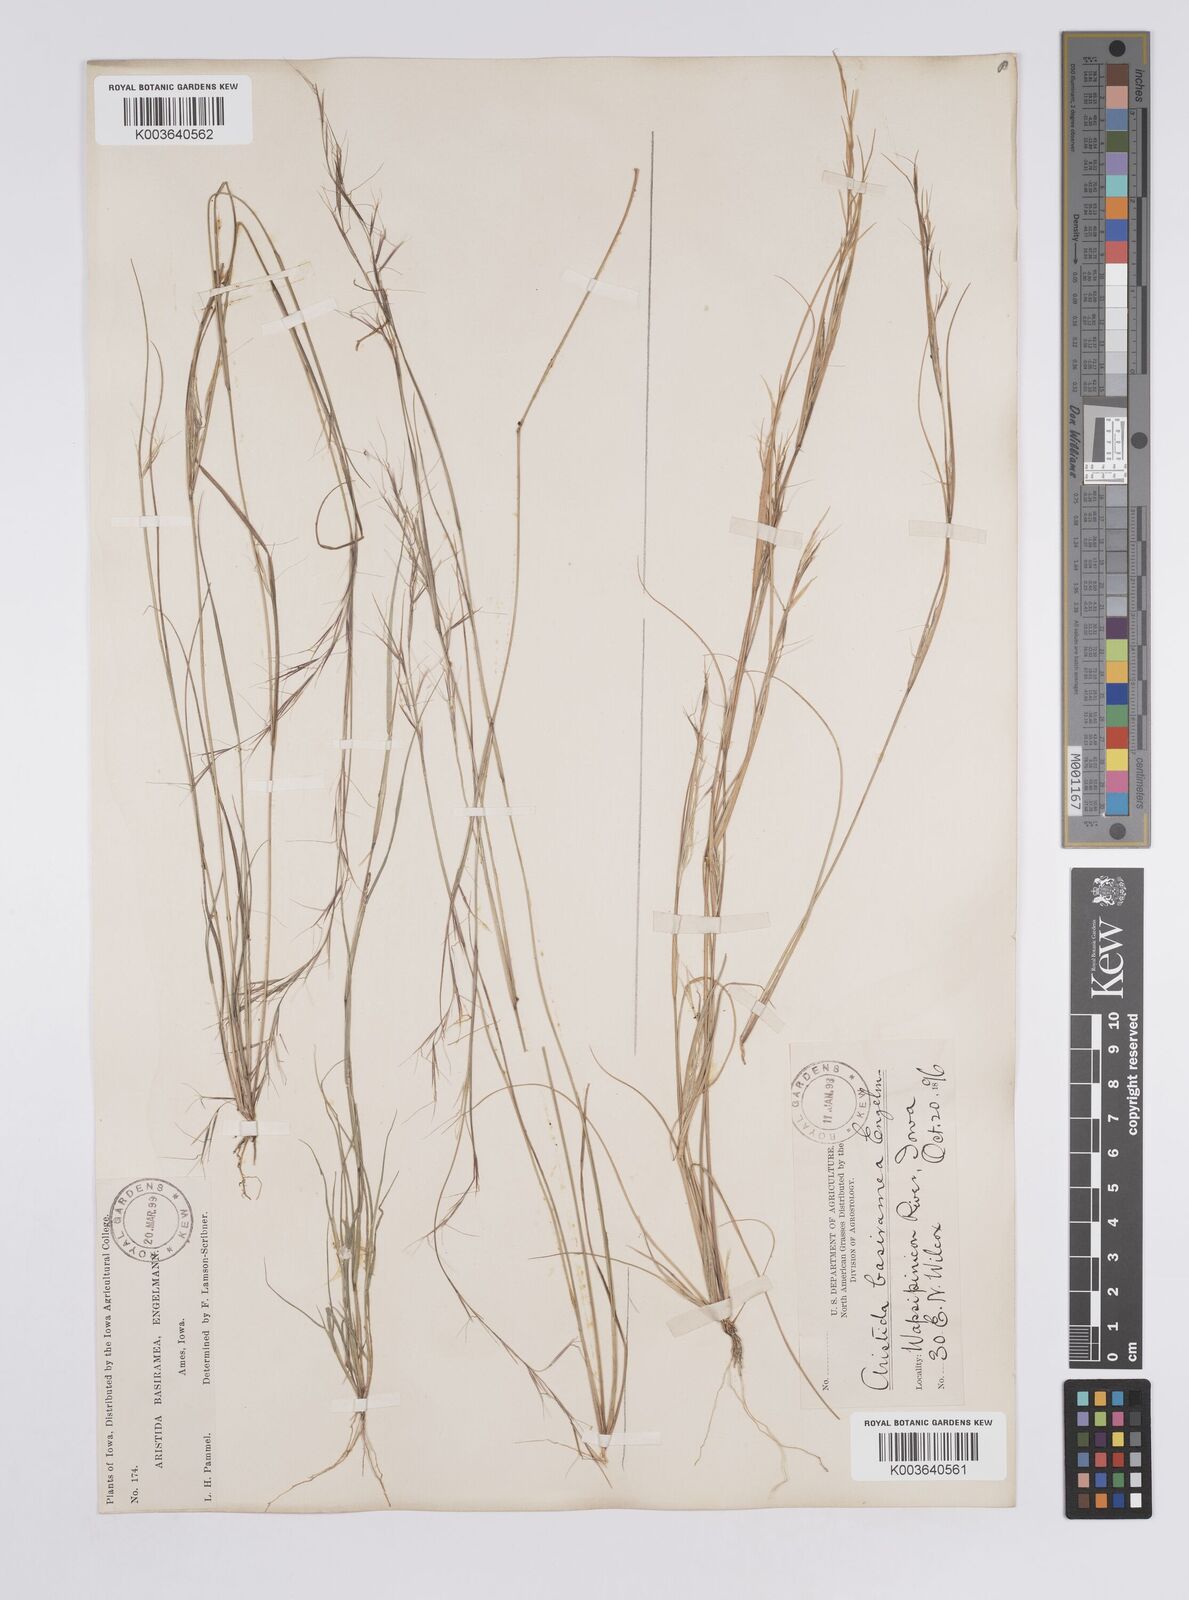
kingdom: Plantae
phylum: Tracheophyta
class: Liliopsida
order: Poales
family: Poaceae
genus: Aristida
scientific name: Aristida basiramea
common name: Forked three-awned grass
